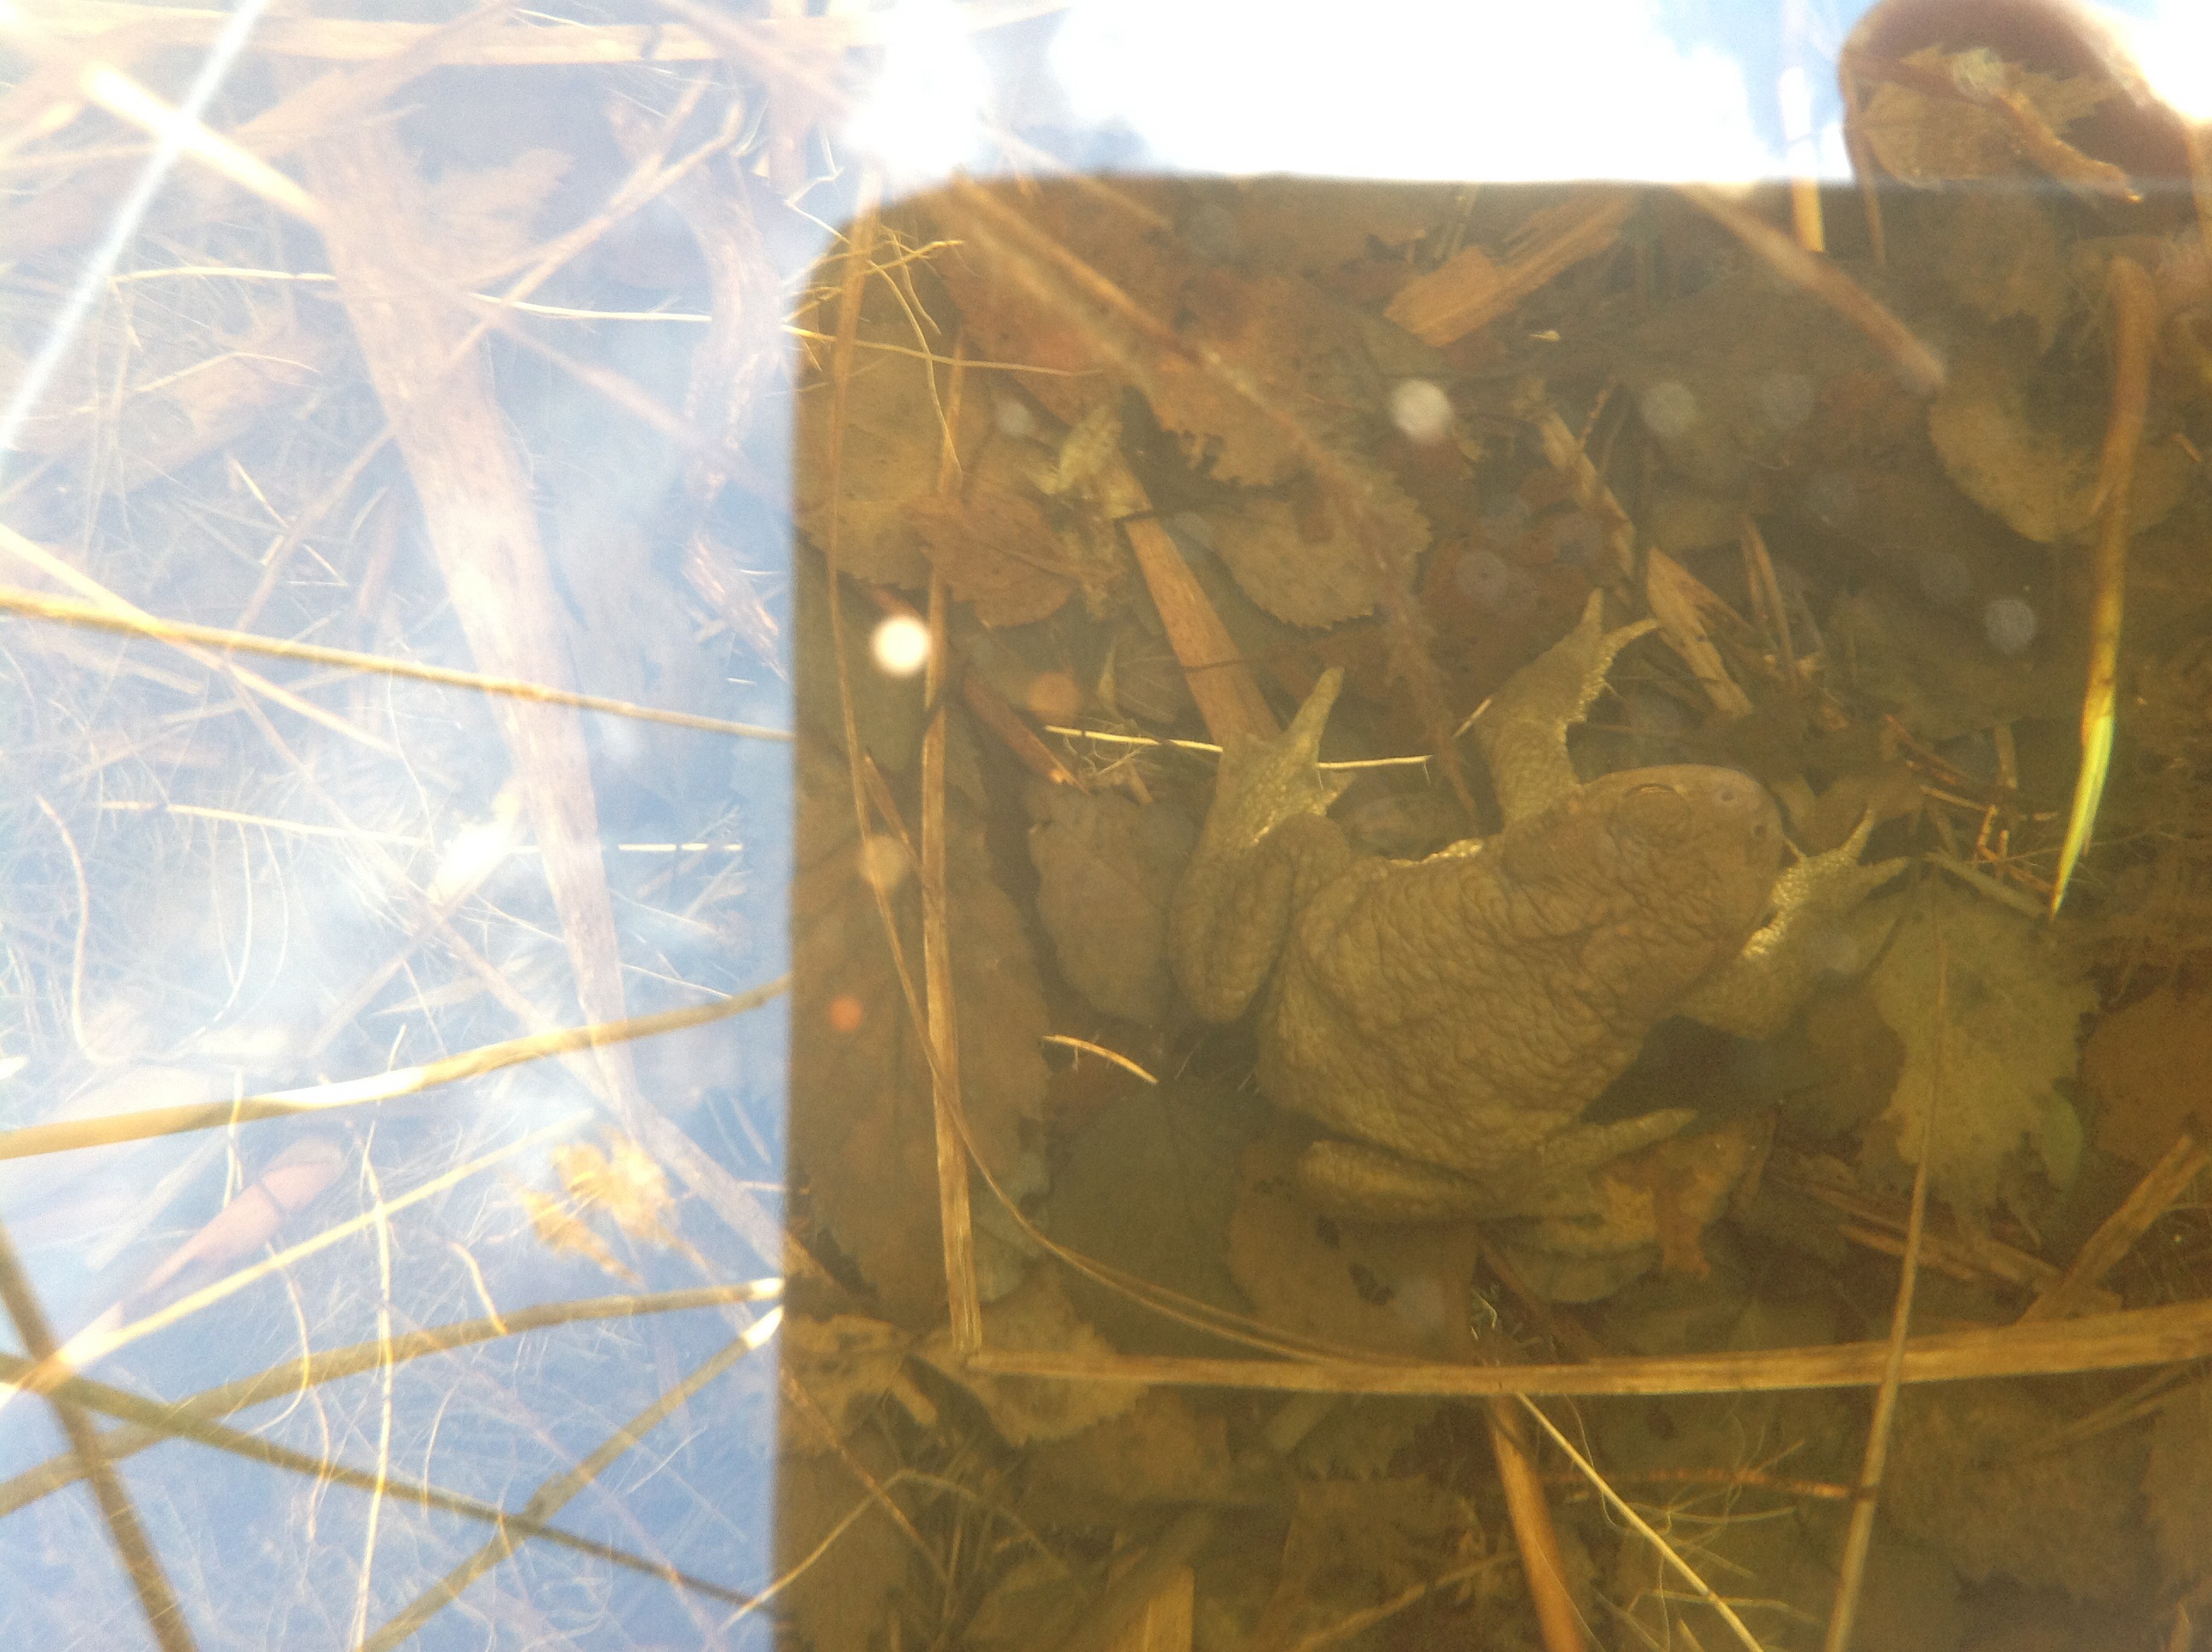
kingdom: Animalia
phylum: Chordata
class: Amphibia
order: Anura
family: Bufonidae
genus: Bufo
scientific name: Bufo bufo
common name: Common toad
